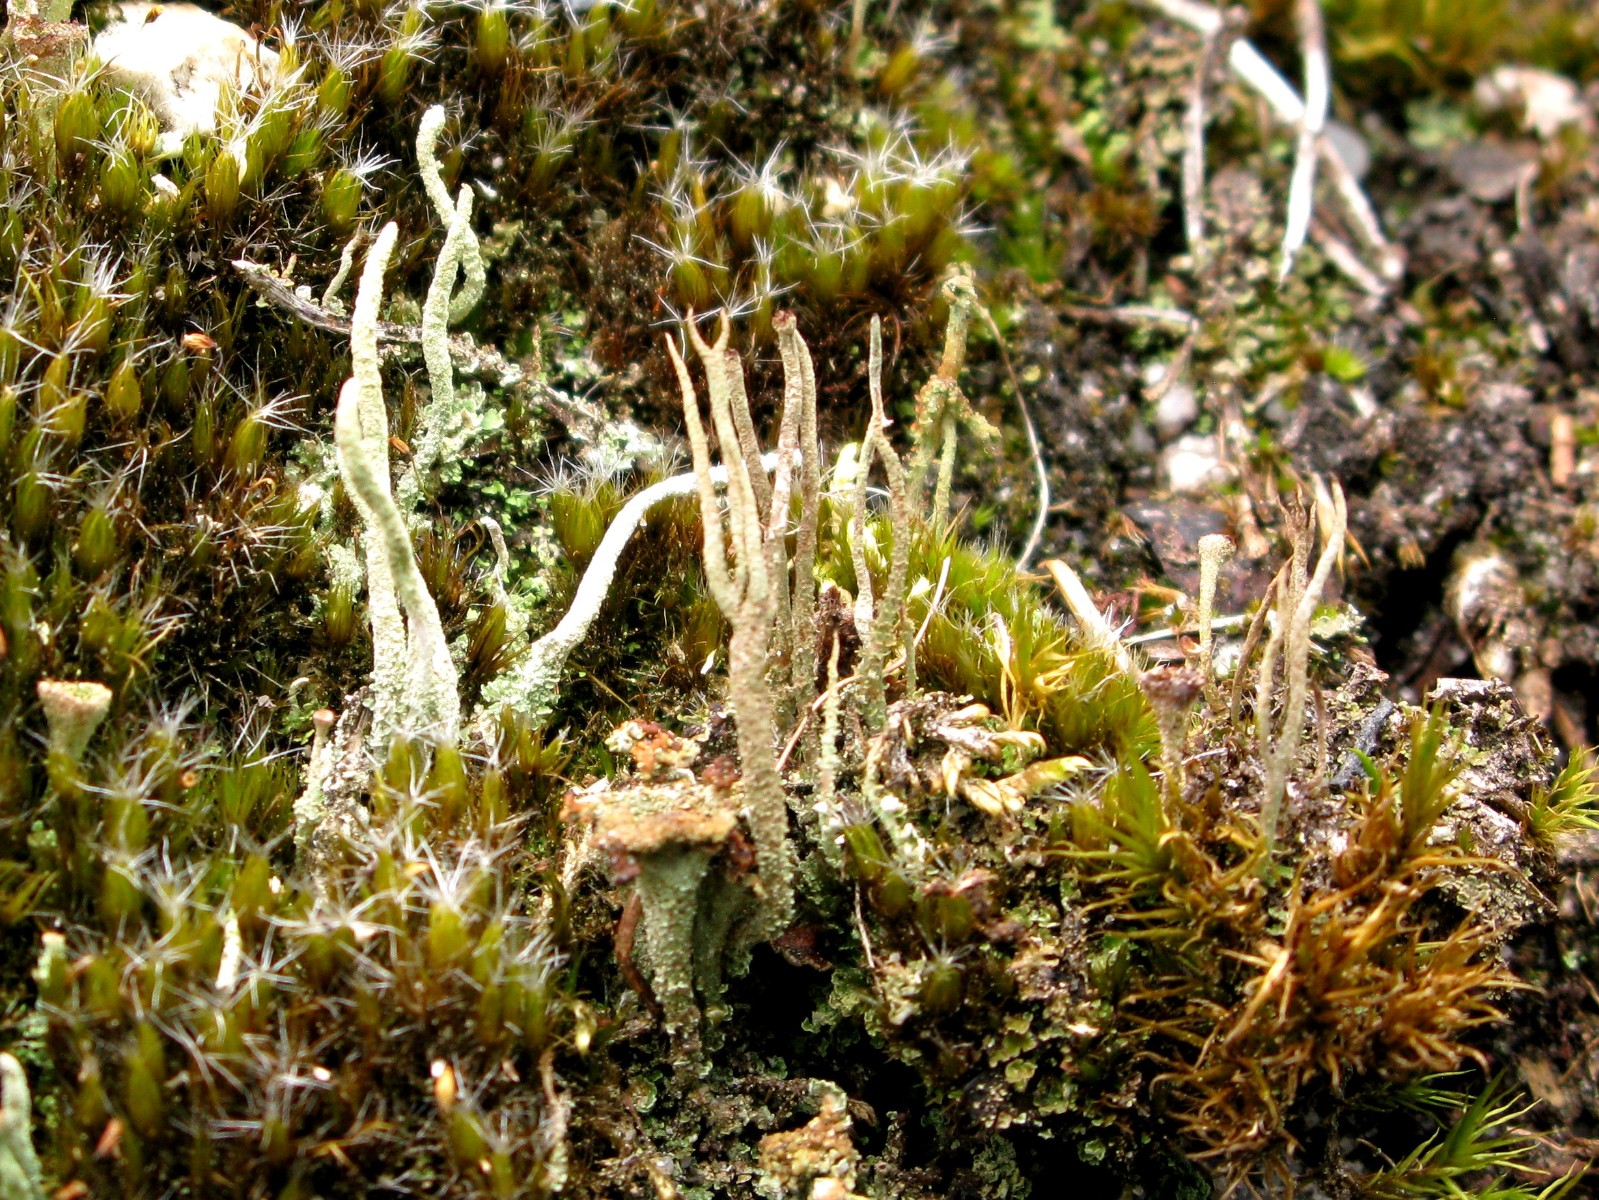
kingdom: Fungi
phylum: Ascomycota
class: Lecanoromycetes
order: Lecanorales
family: Cladoniaceae
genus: Cladonia
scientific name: Cladonia scabriuscula
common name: ru bægerlav
